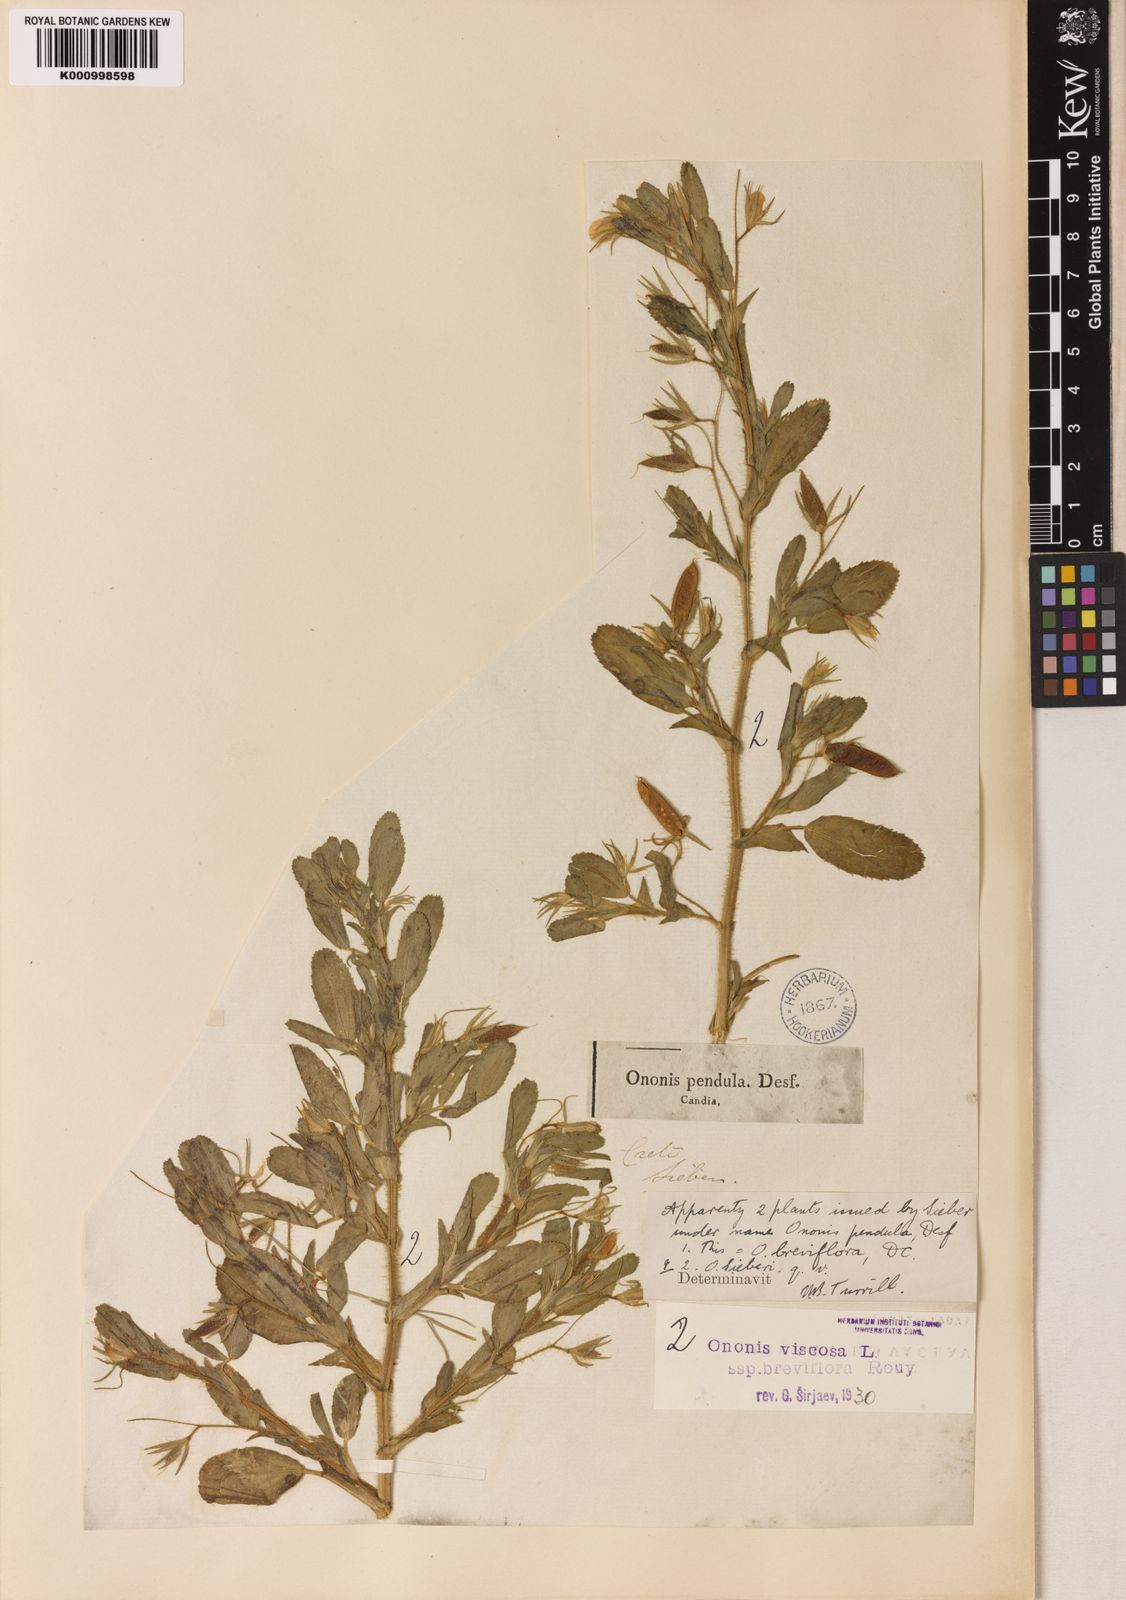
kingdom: Plantae
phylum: Tracheophyta
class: Magnoliopsida
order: Fabales
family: Fabaceae
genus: Ononis
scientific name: Ononis viscosa
